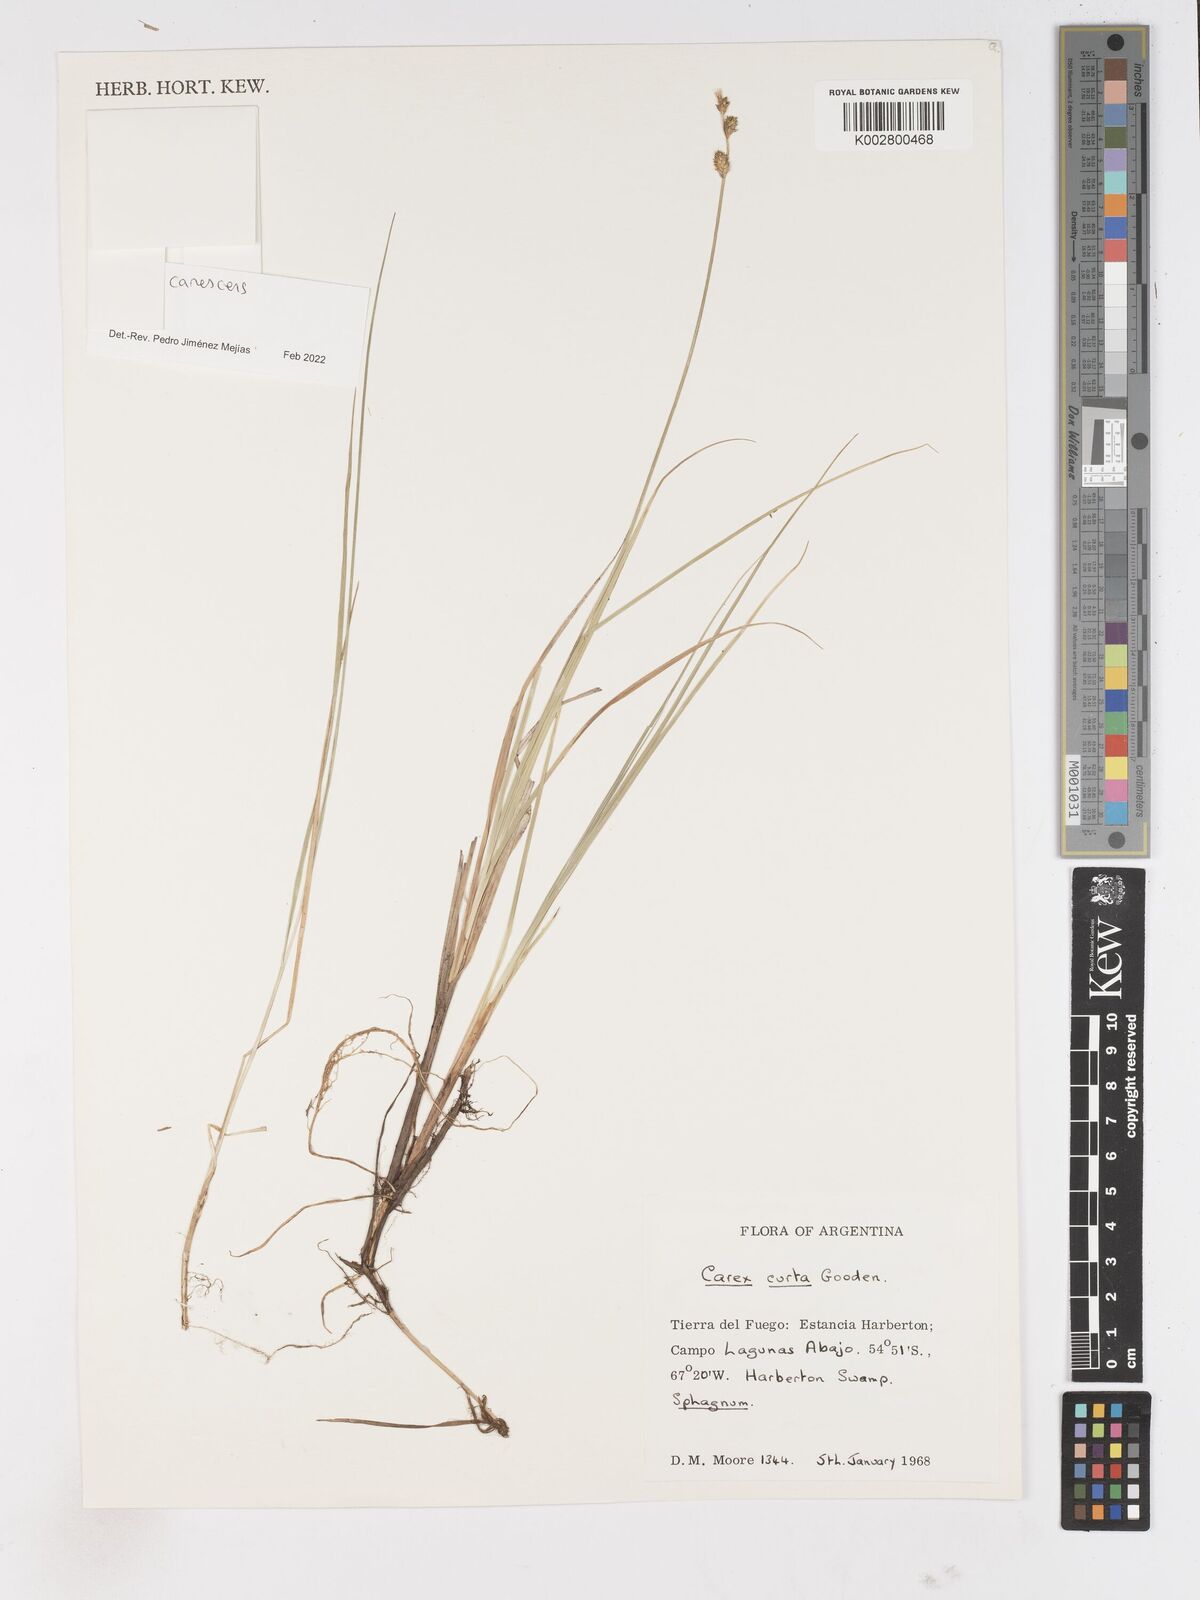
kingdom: Plantae
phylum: Tracheophyta
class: Liliopsida
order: Poales
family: Cyperaceae
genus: Carex
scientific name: Carex
